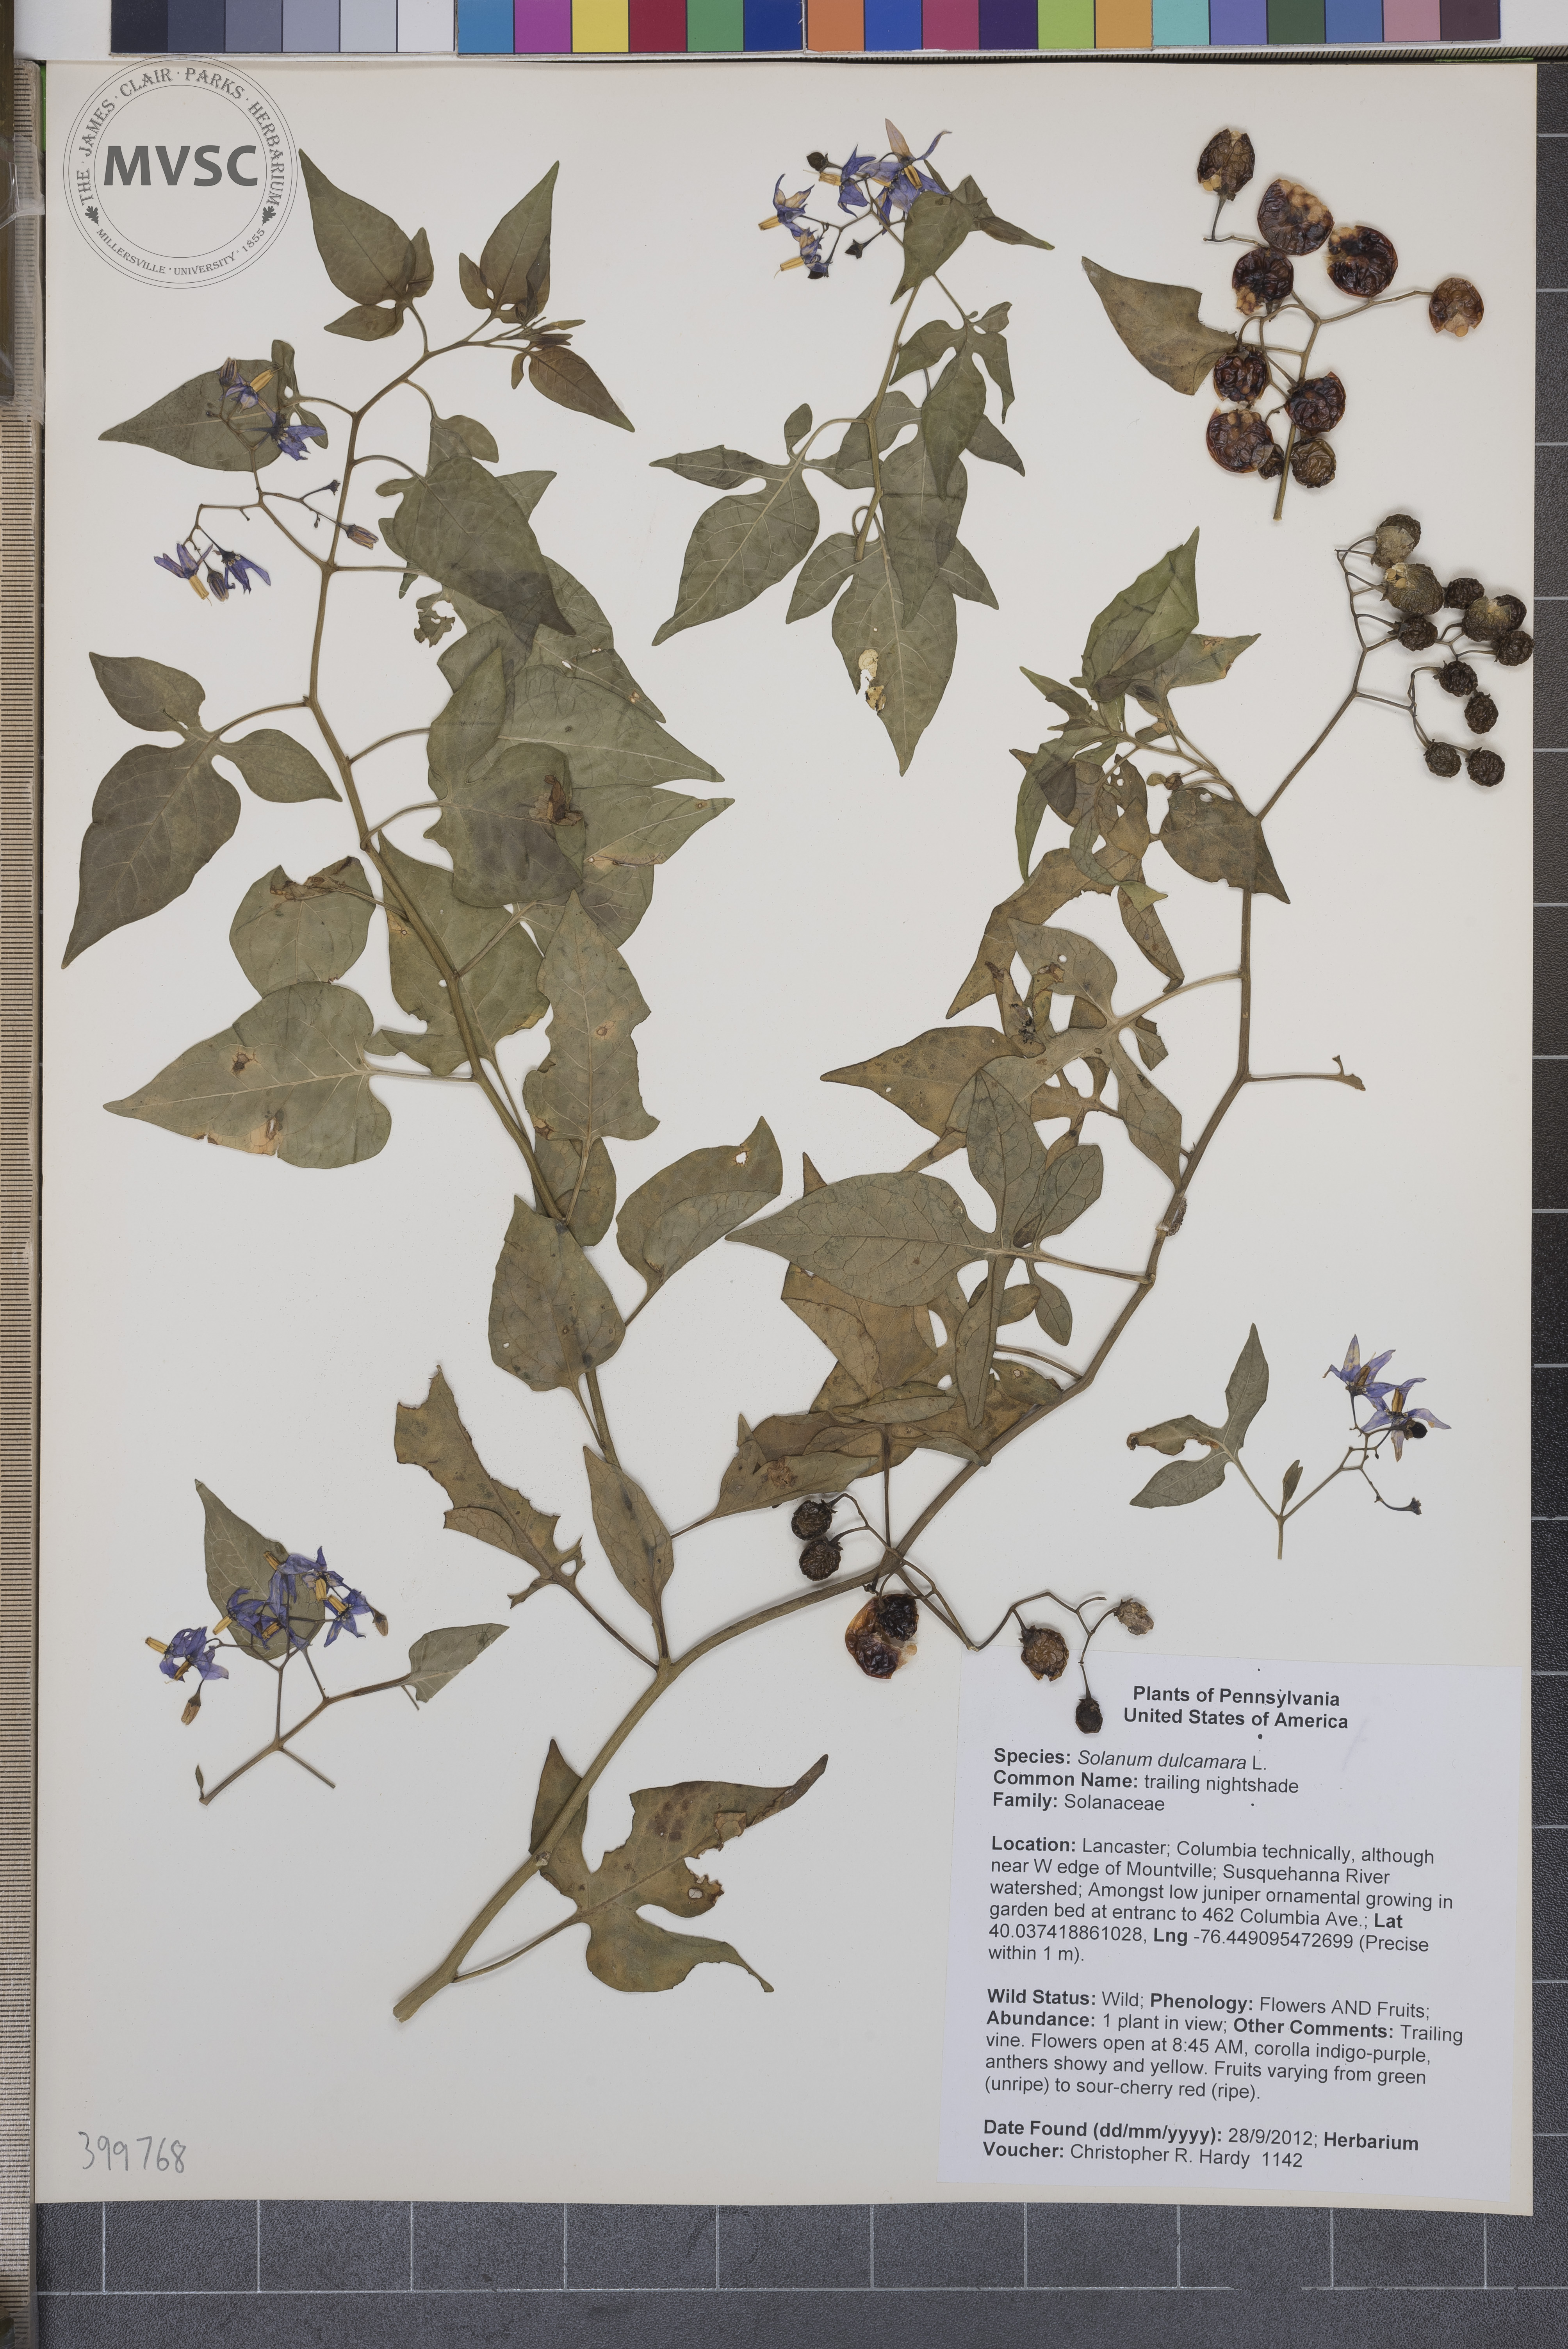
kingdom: Plantae
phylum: Tracheophyta
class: Magnoliopsida
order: Solanales
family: Solanaceae
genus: Solanum
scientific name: Solanum dulcamara
